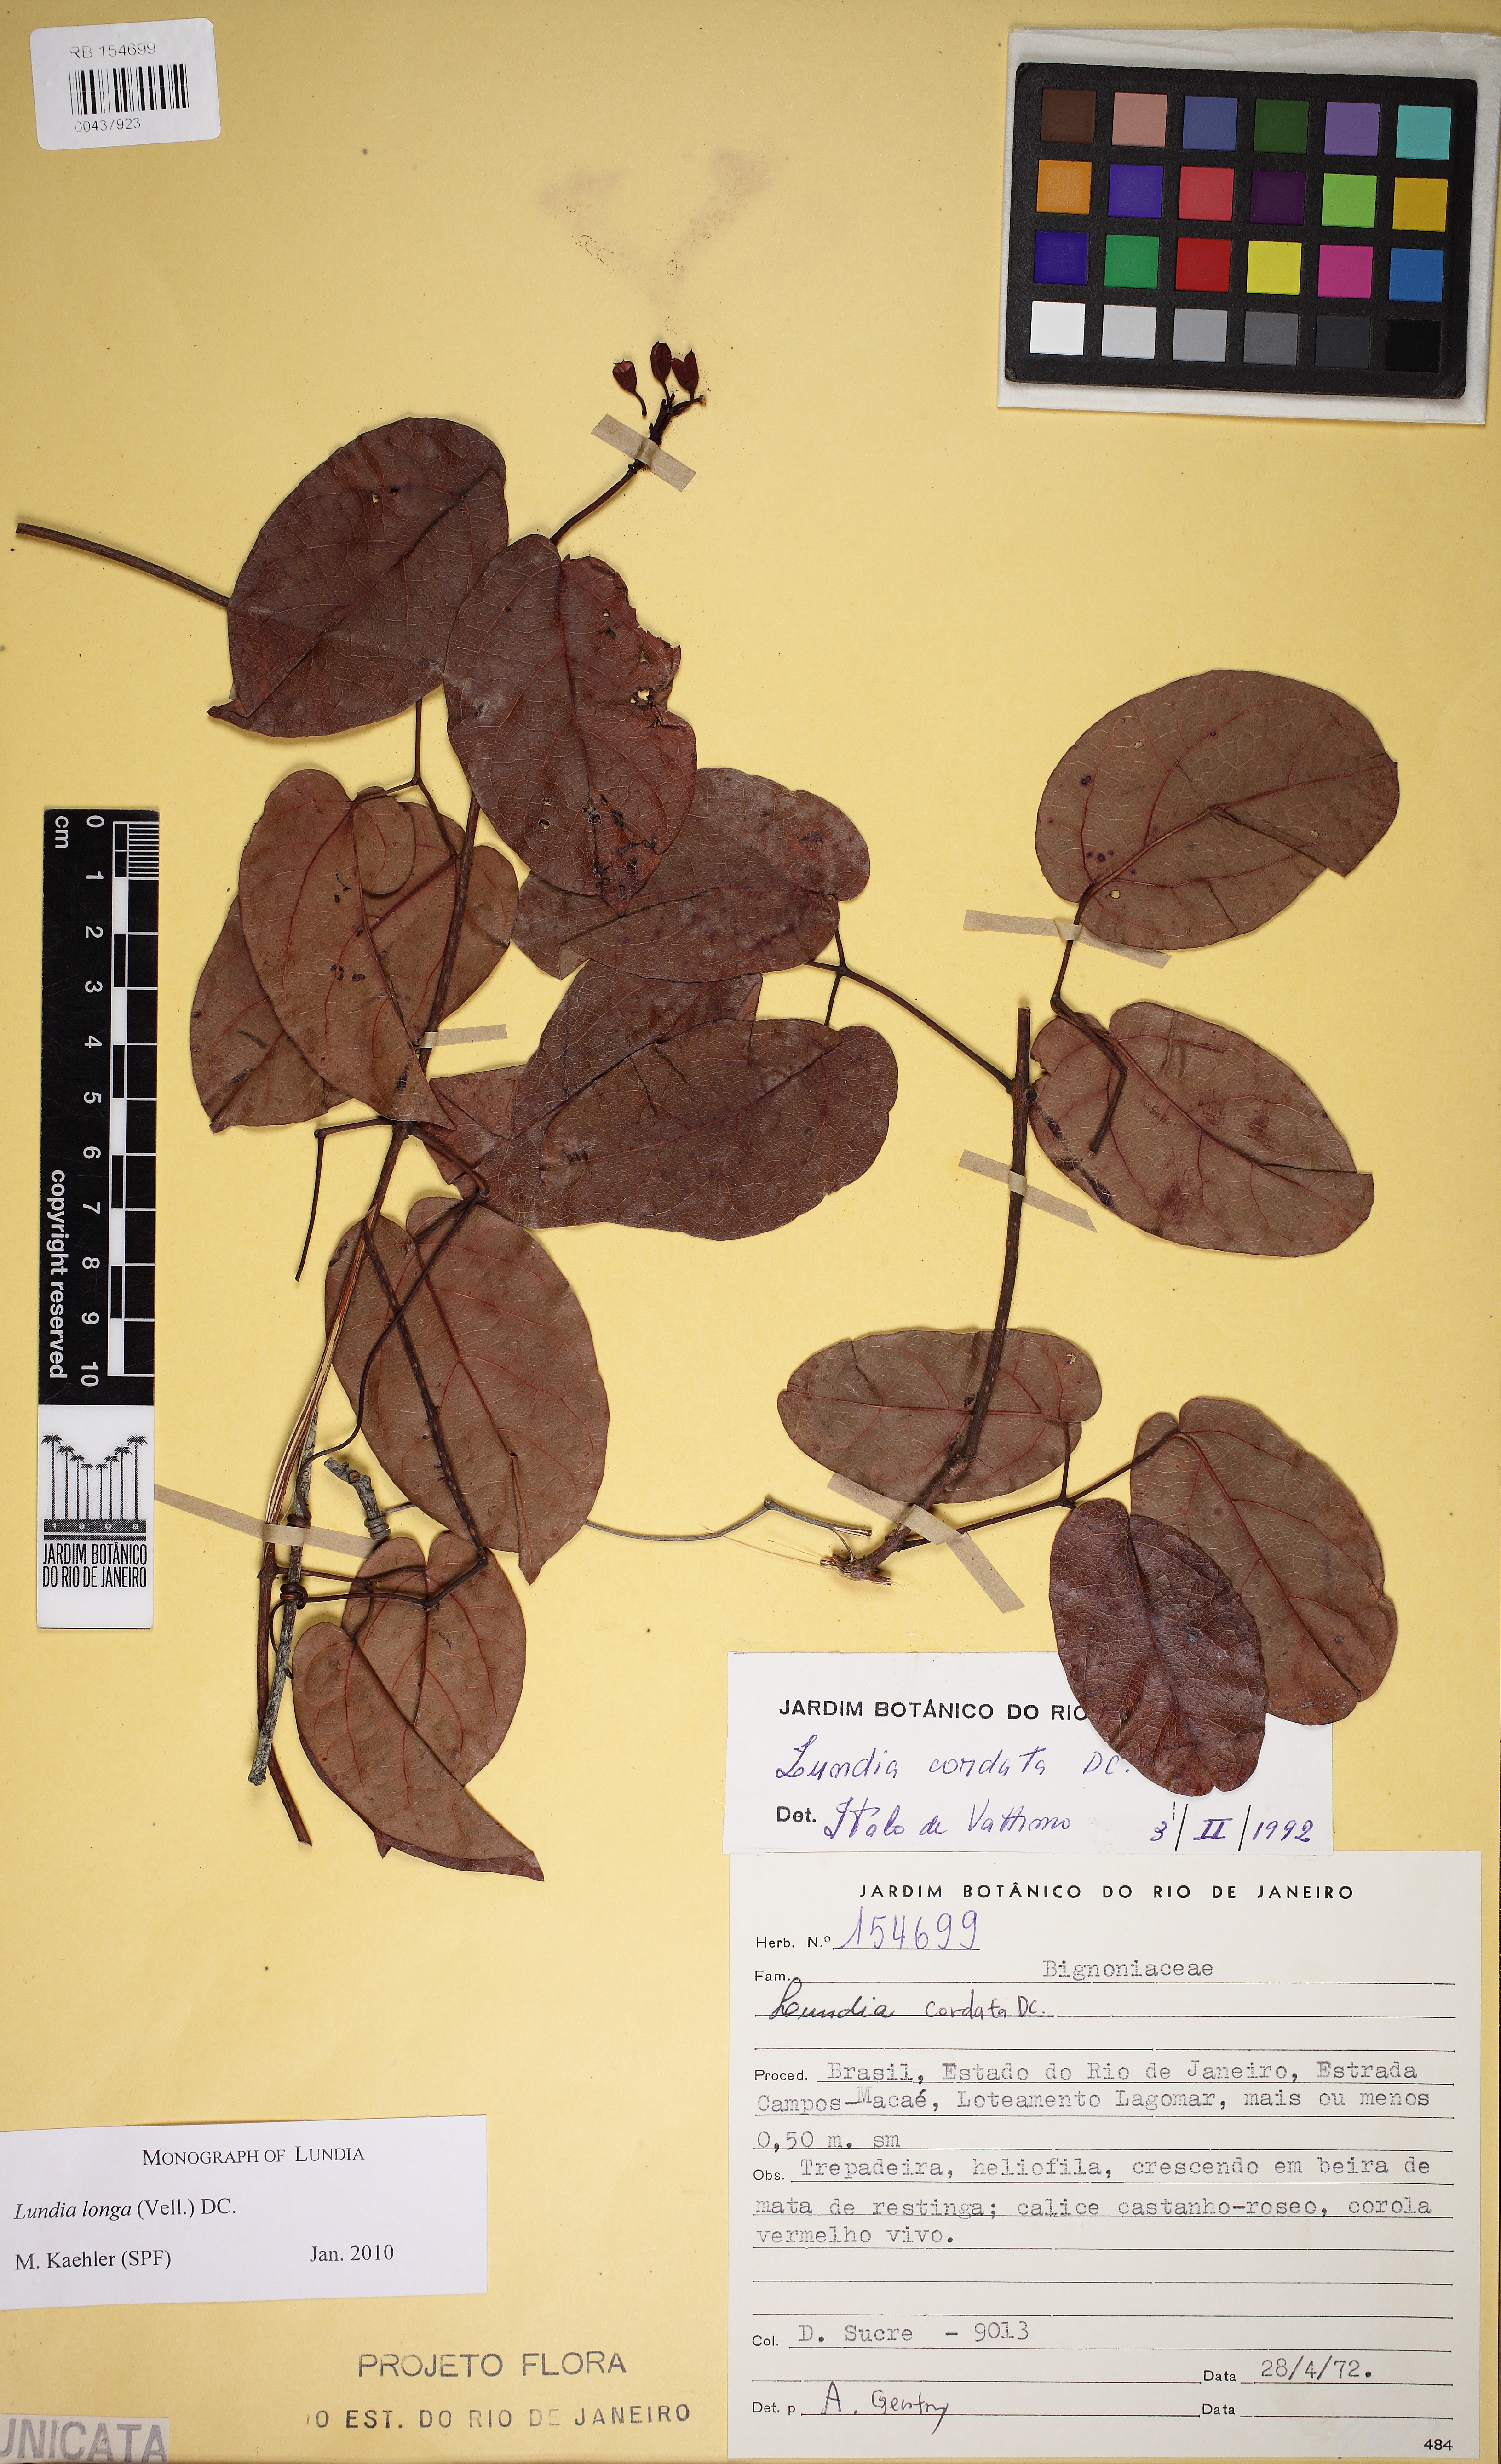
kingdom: Plantae
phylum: Tracheophyta
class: Magnoliopsida
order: Lamiales
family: Bignoniaceae
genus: Lundia
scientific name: Lundia longa
